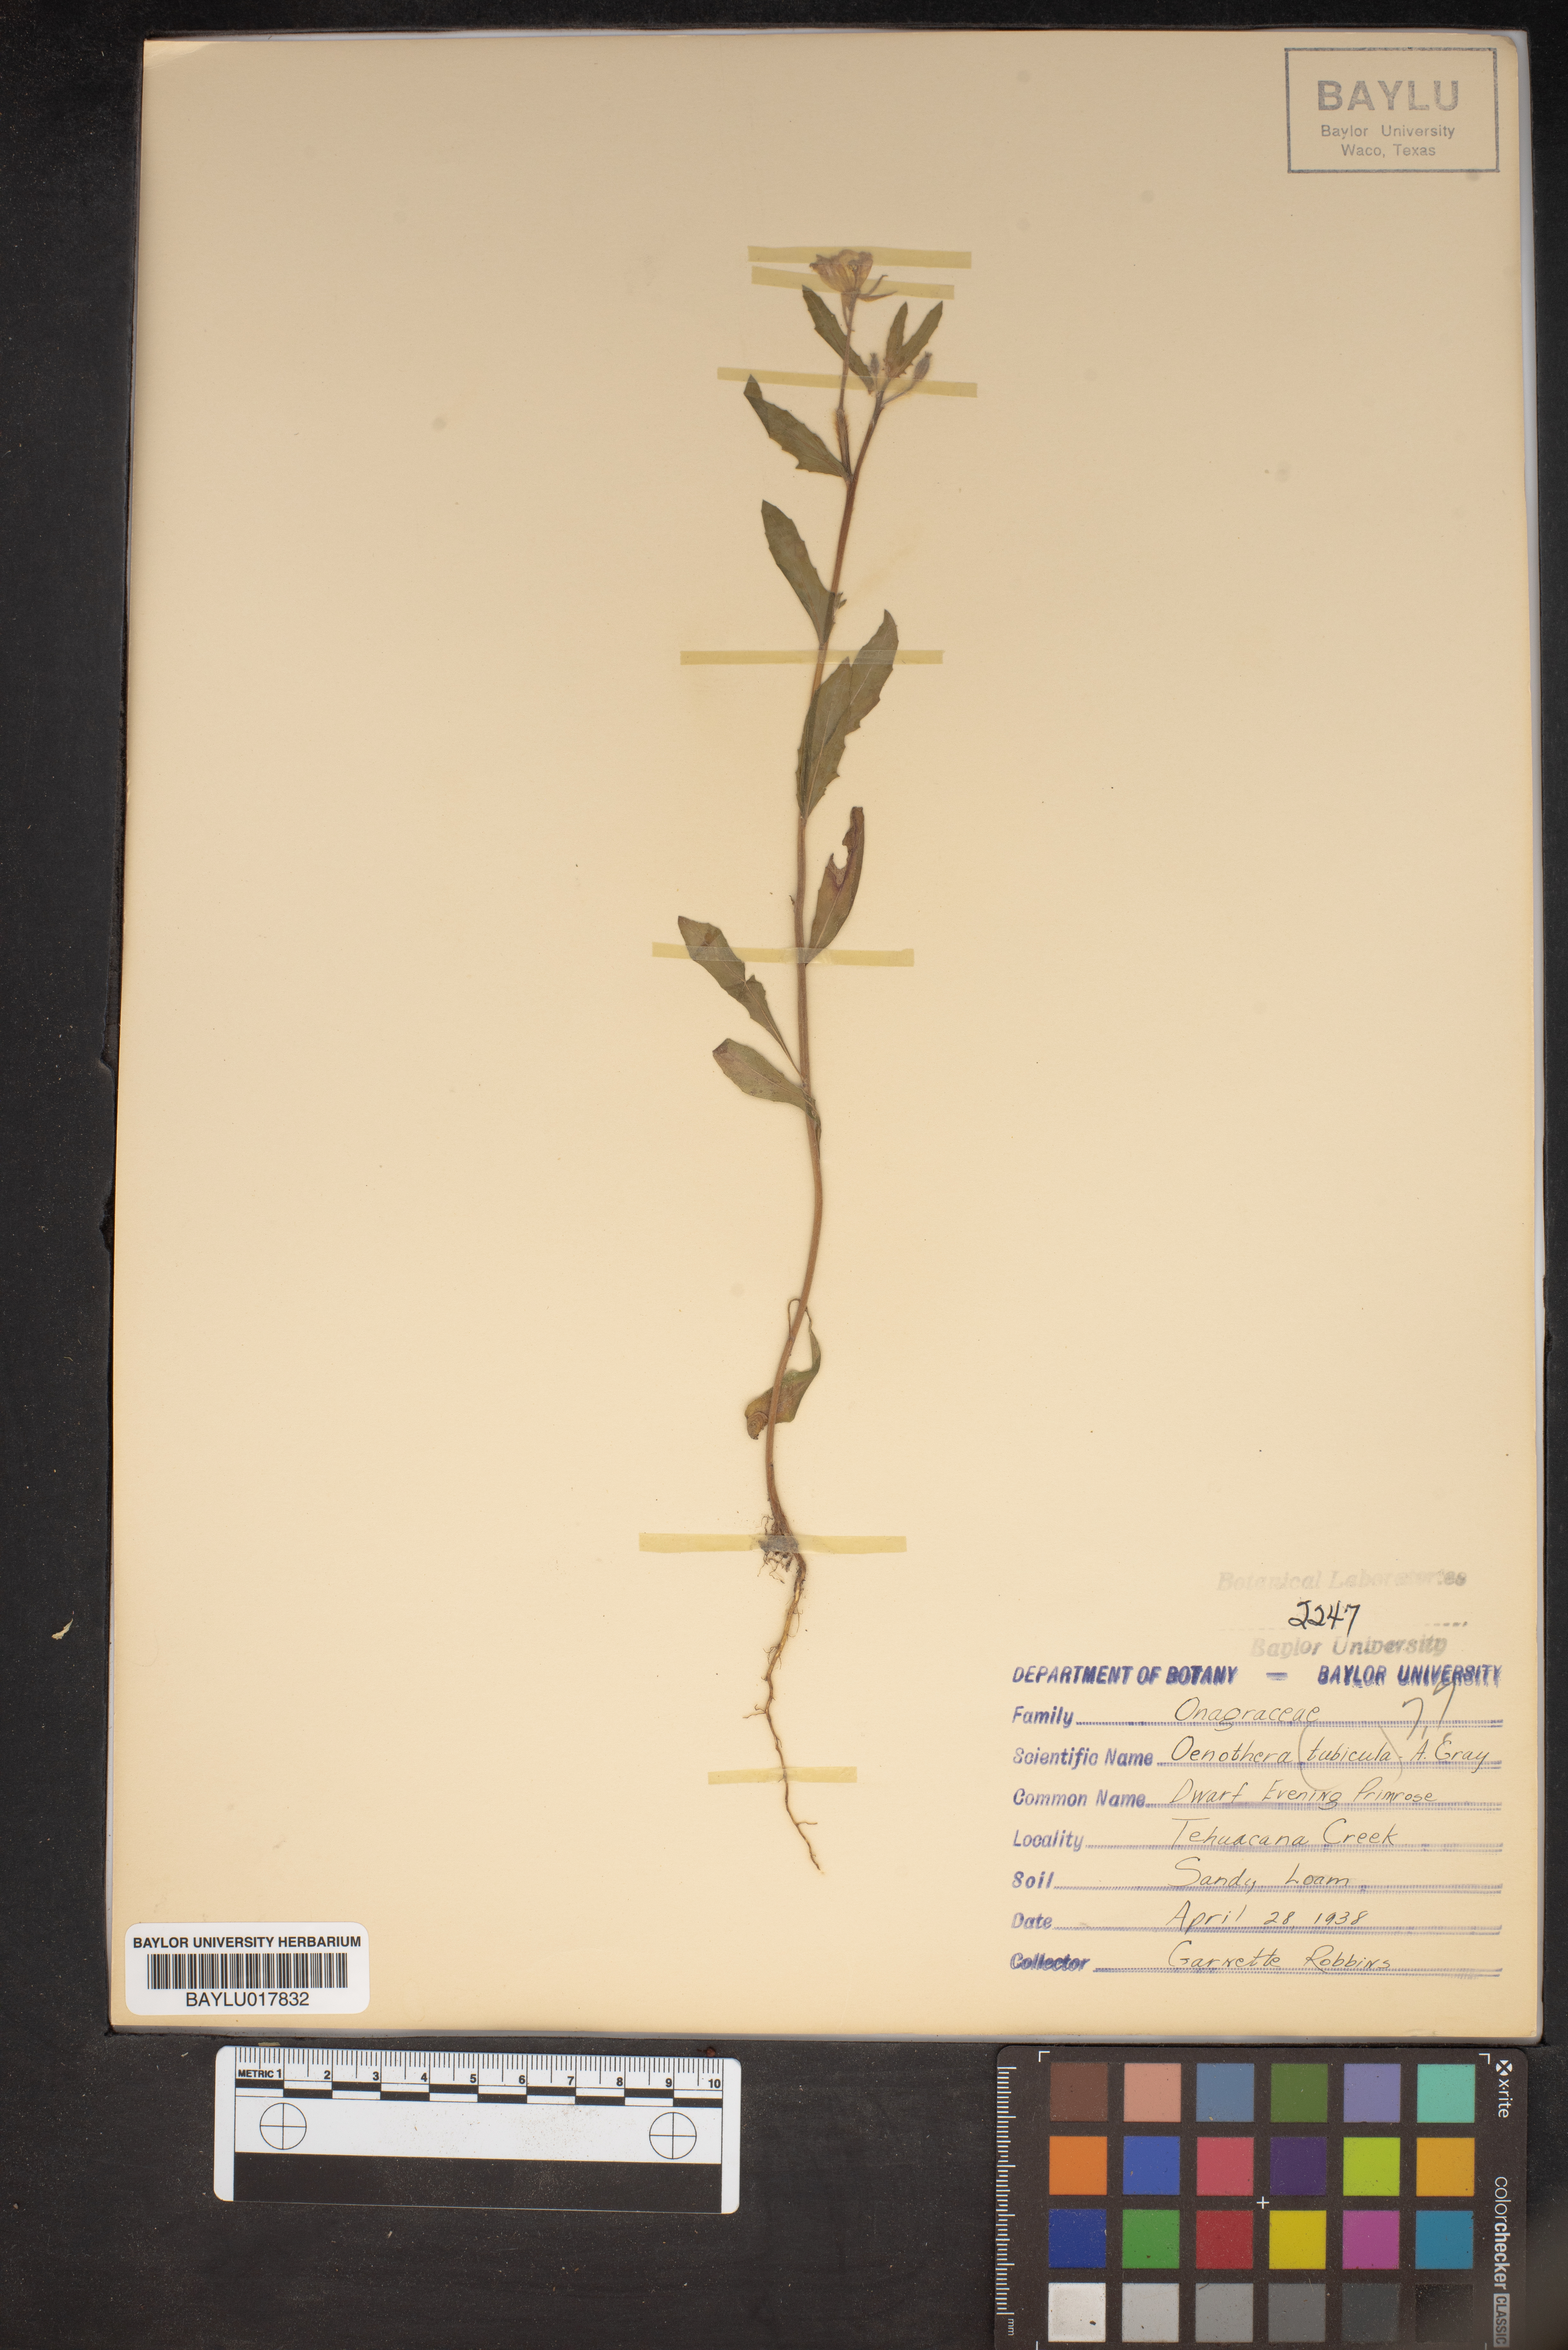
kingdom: Plantae
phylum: Tracheophyta
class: Magnoliopsida
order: Myrtales
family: Onagraceae
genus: Oenothera
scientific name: Oenothera tubicula
